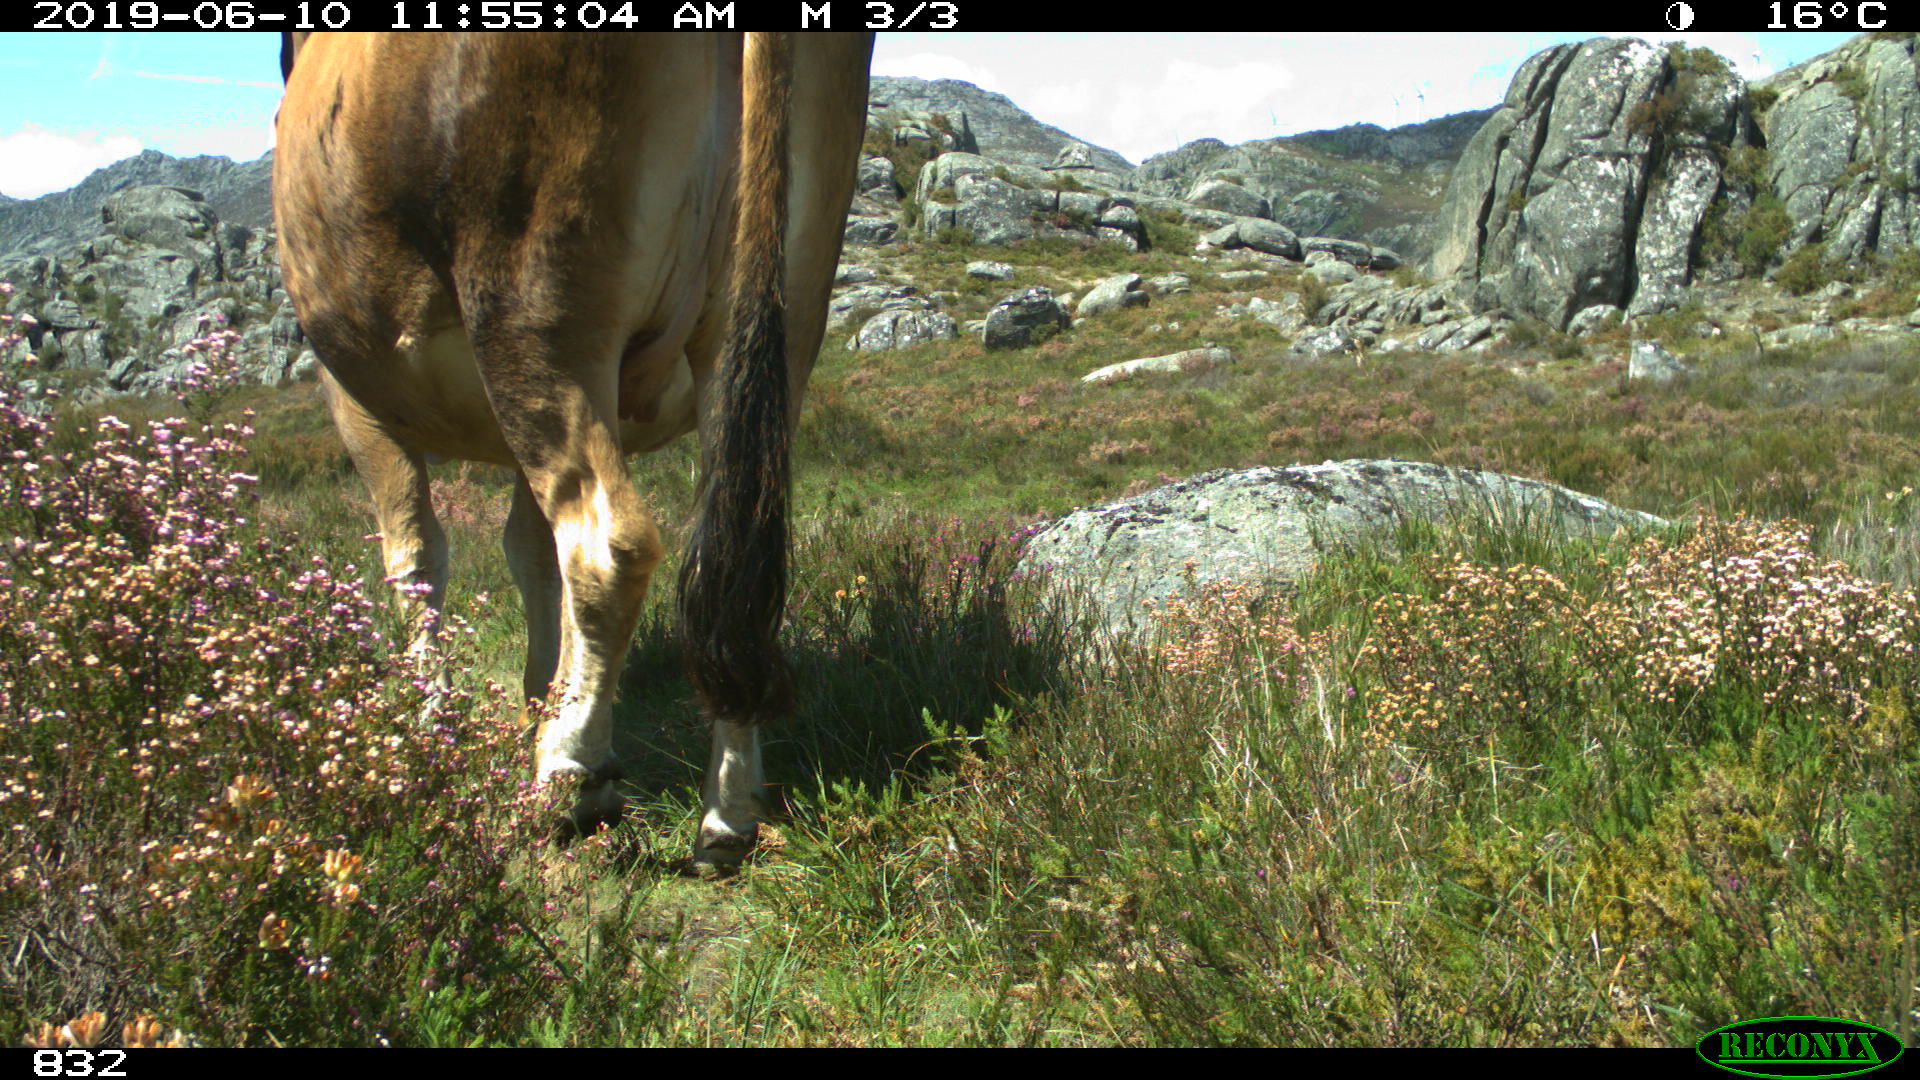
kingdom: Animalia
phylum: Chordata
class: Mammalia
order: Artiodactyla
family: Bovidae
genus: Bos
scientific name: Bos taurus
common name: Domesticated cattle
